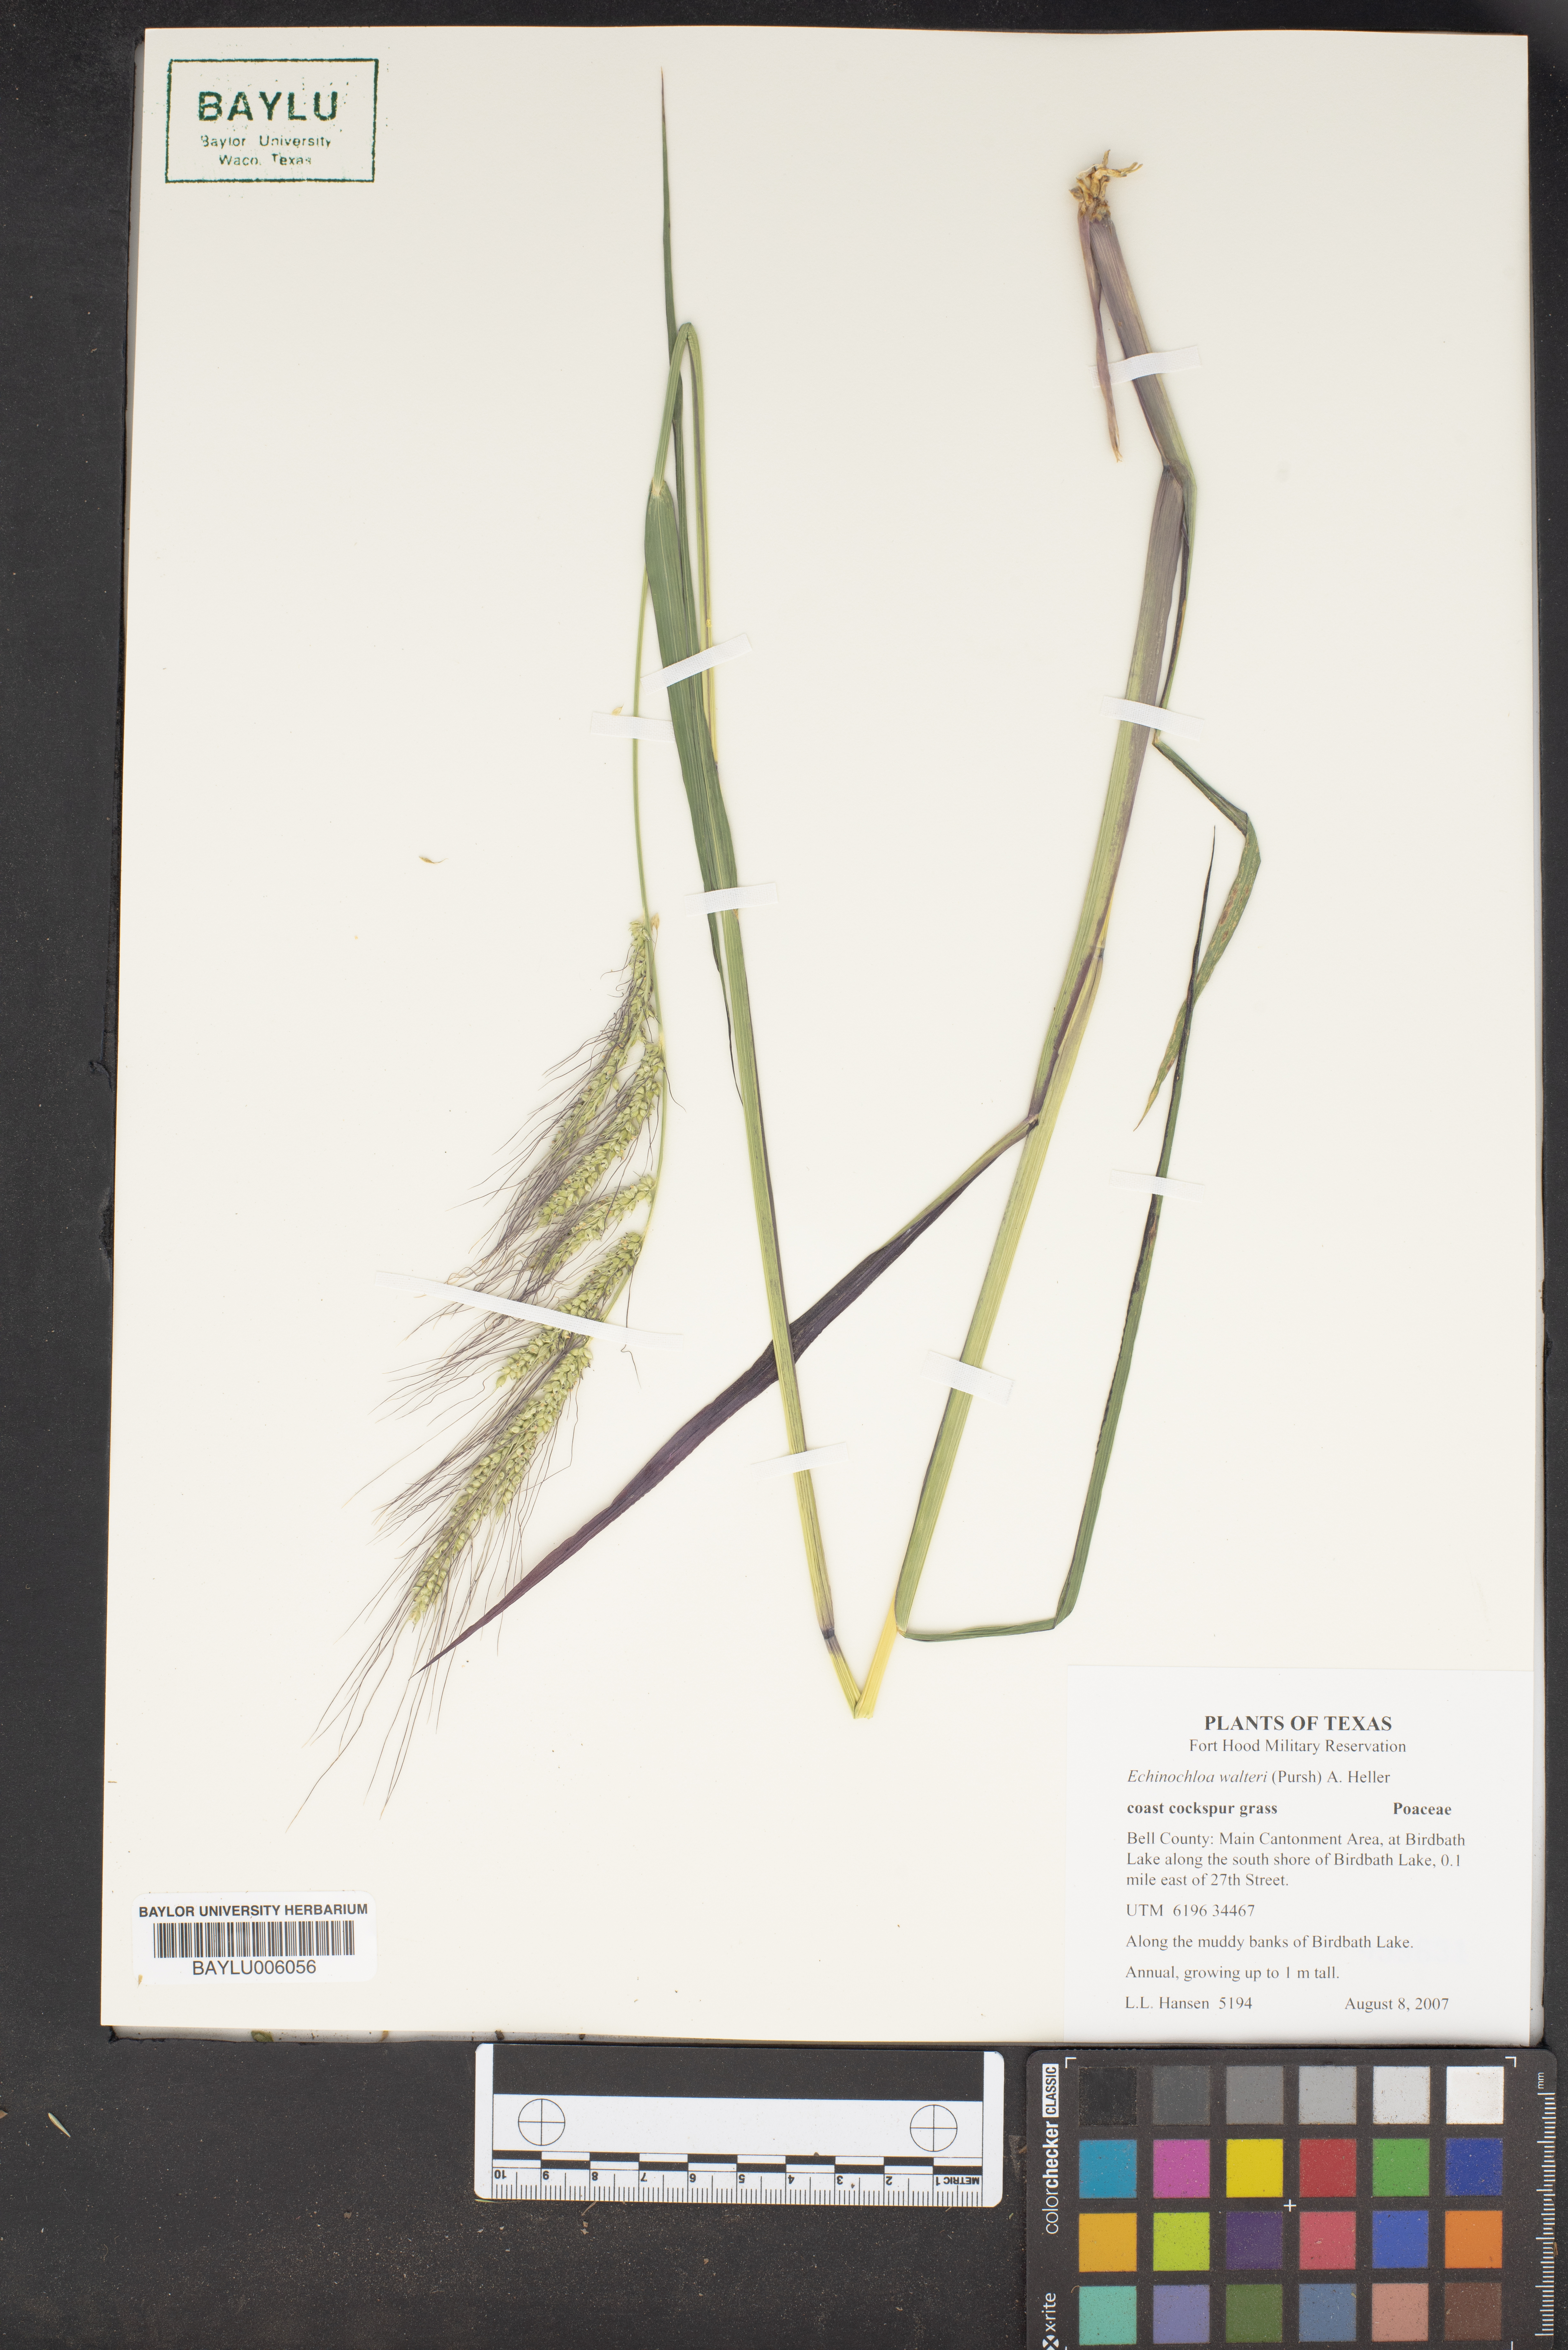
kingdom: Plantae
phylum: Tracheophyta
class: Liliopsida
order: Poales
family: Poaceae
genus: Echinochloa
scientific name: Echinochloa walteri
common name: Coast barnyard grass
